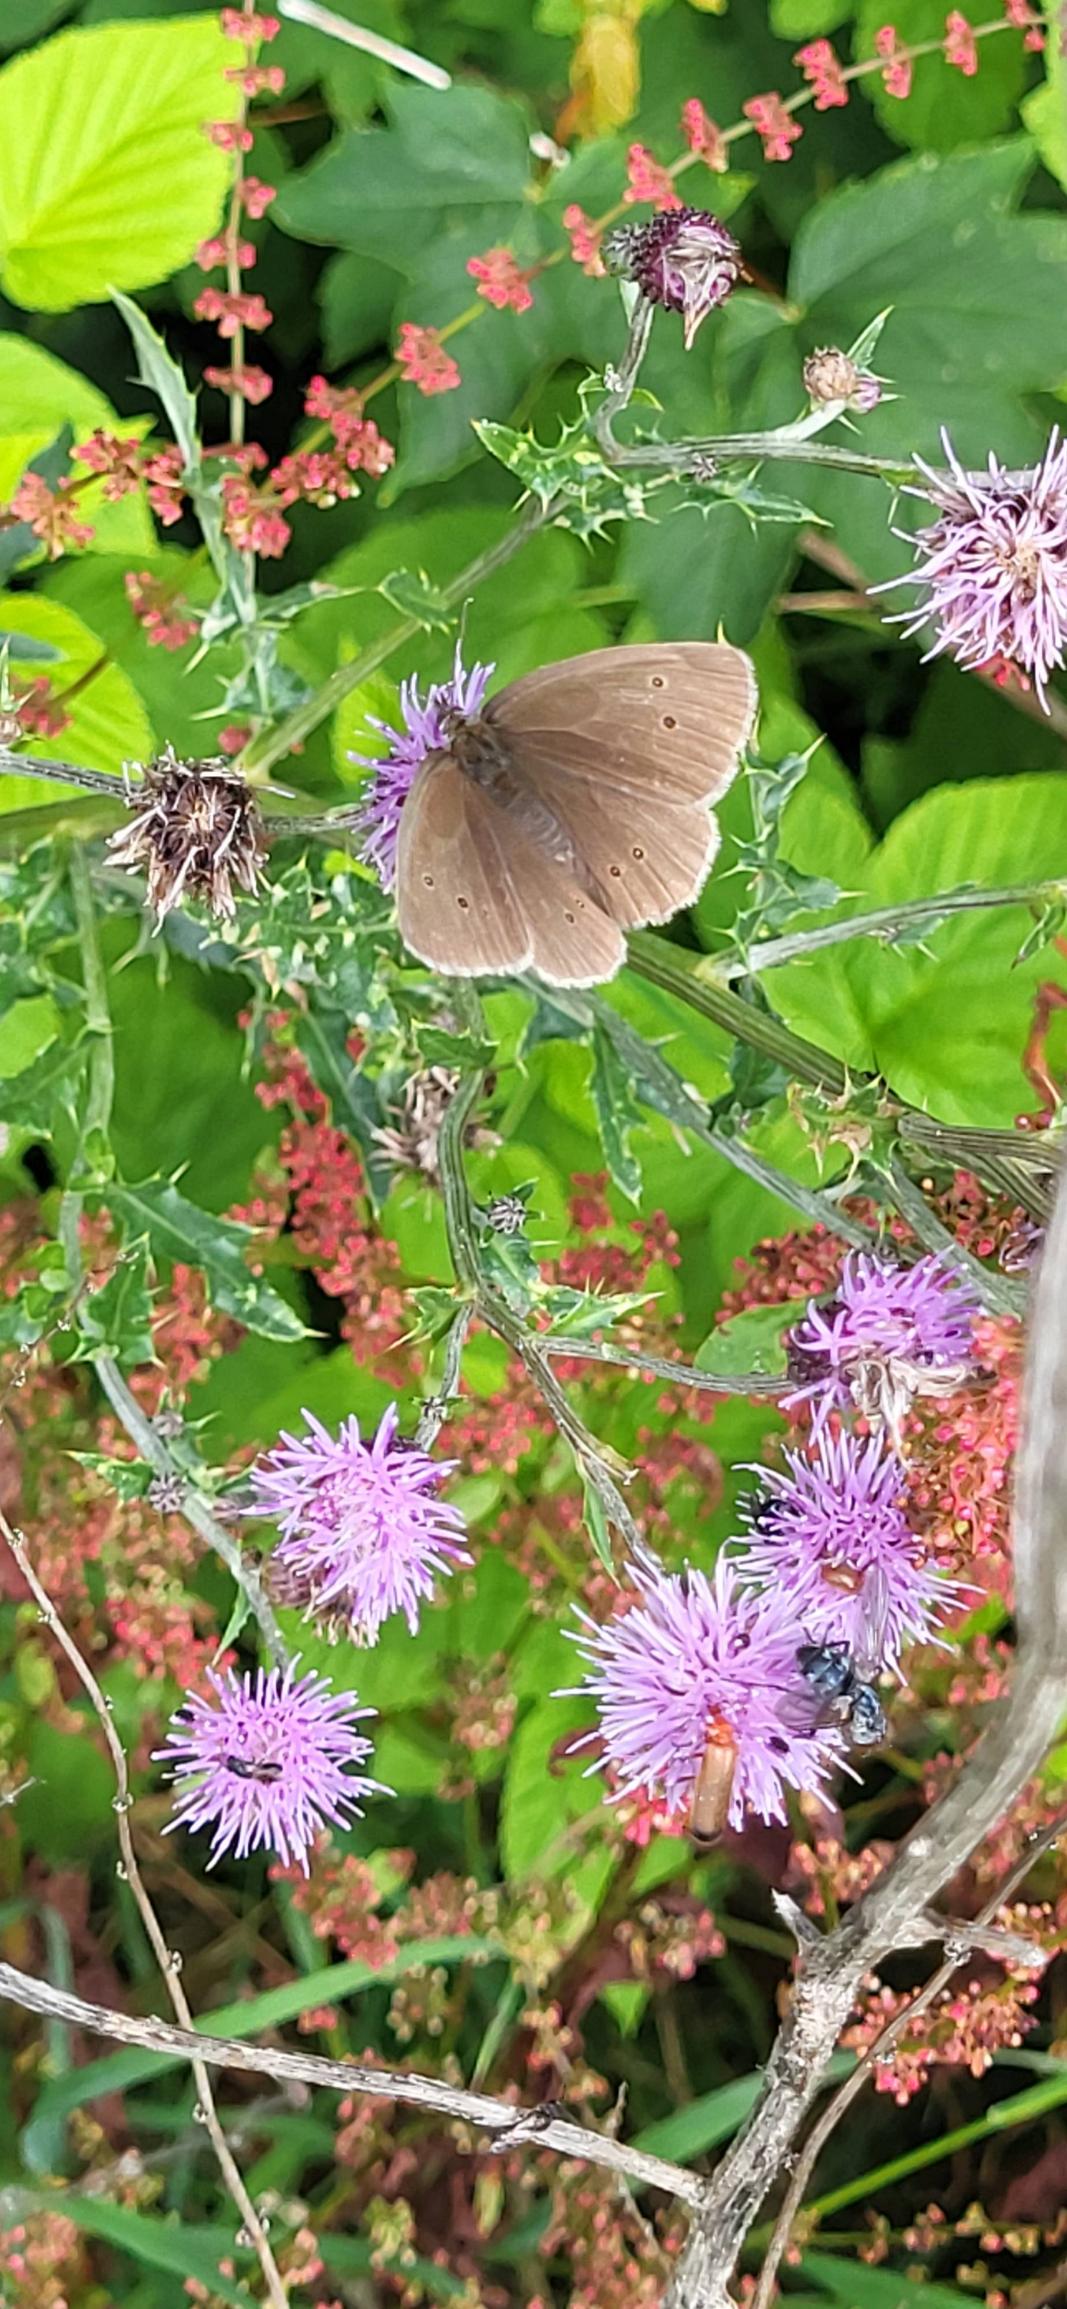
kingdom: Animalia
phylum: Arthropoda
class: Insecta
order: Lepidoptera
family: Nymphalidae
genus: Aphantopus
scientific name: Aphantopus hyperantus
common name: Engrandøje
